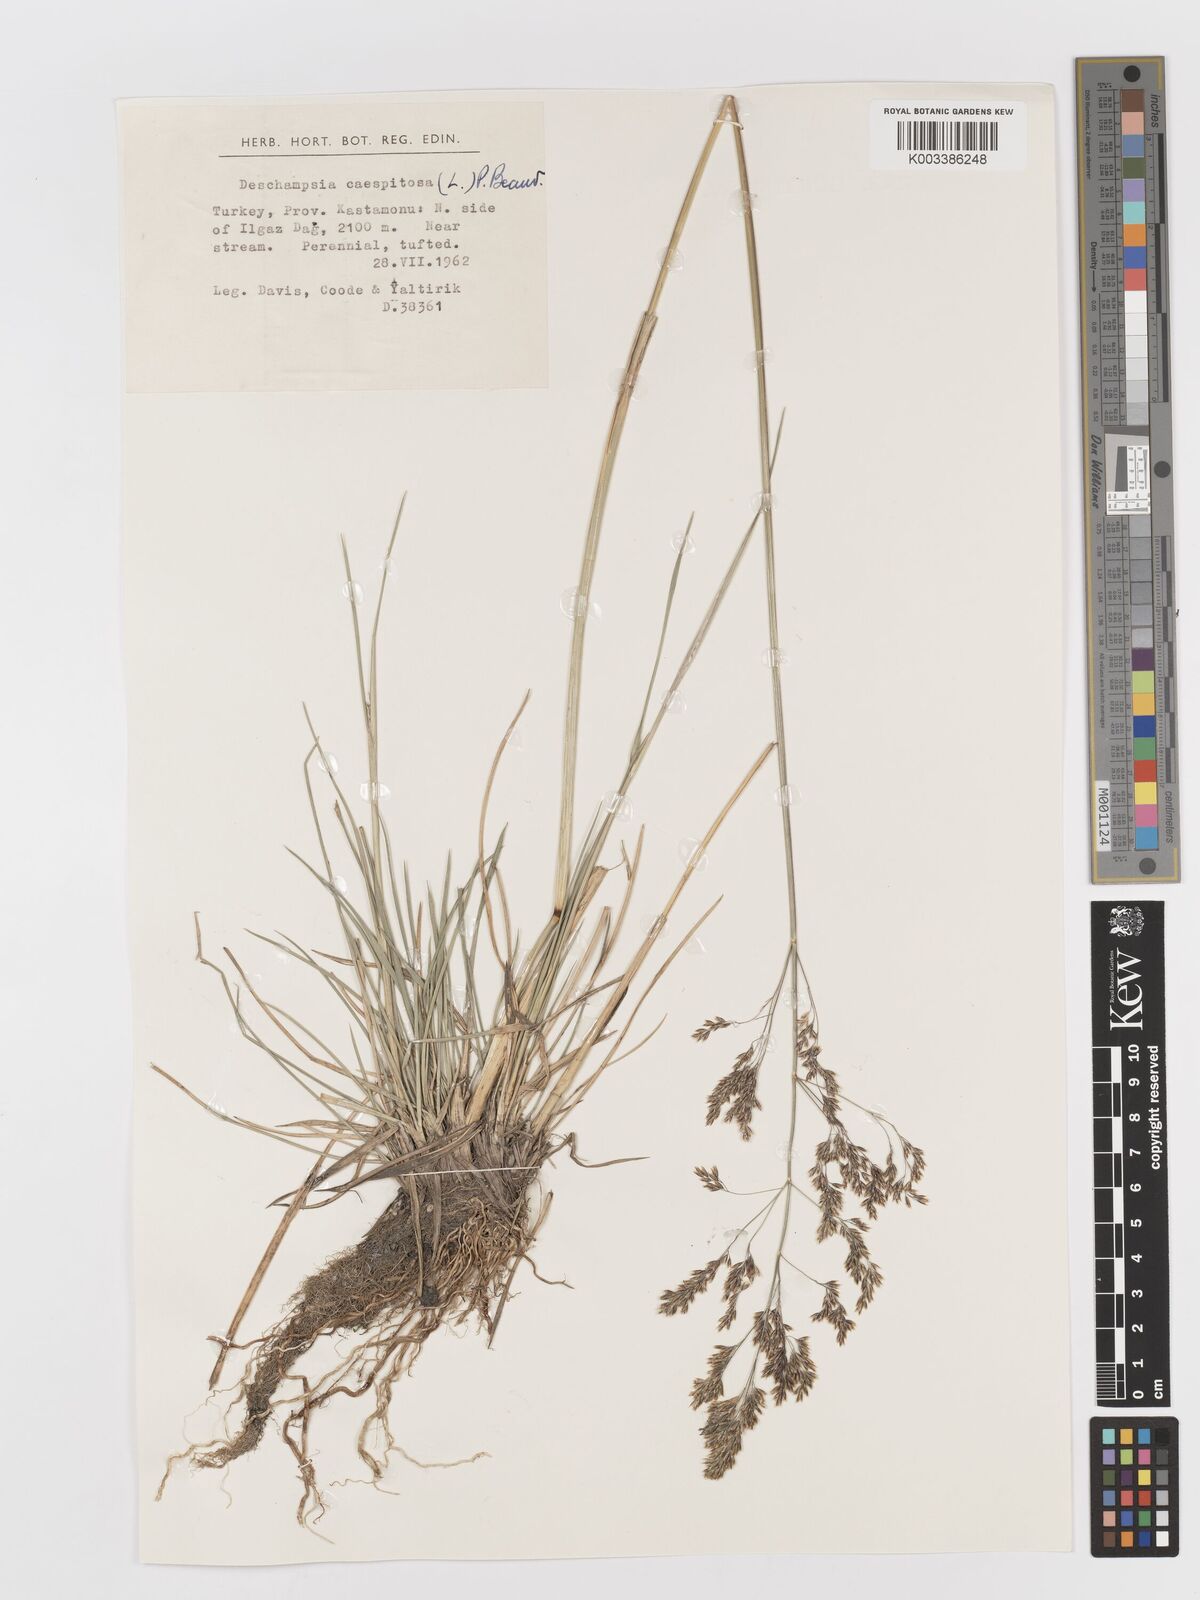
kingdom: Plantae
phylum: Tracheophyta
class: Liliopsida
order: Poales
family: Poaceae
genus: Deschampsia
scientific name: Deschampsia cespitosa
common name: Tufted hair-grass
